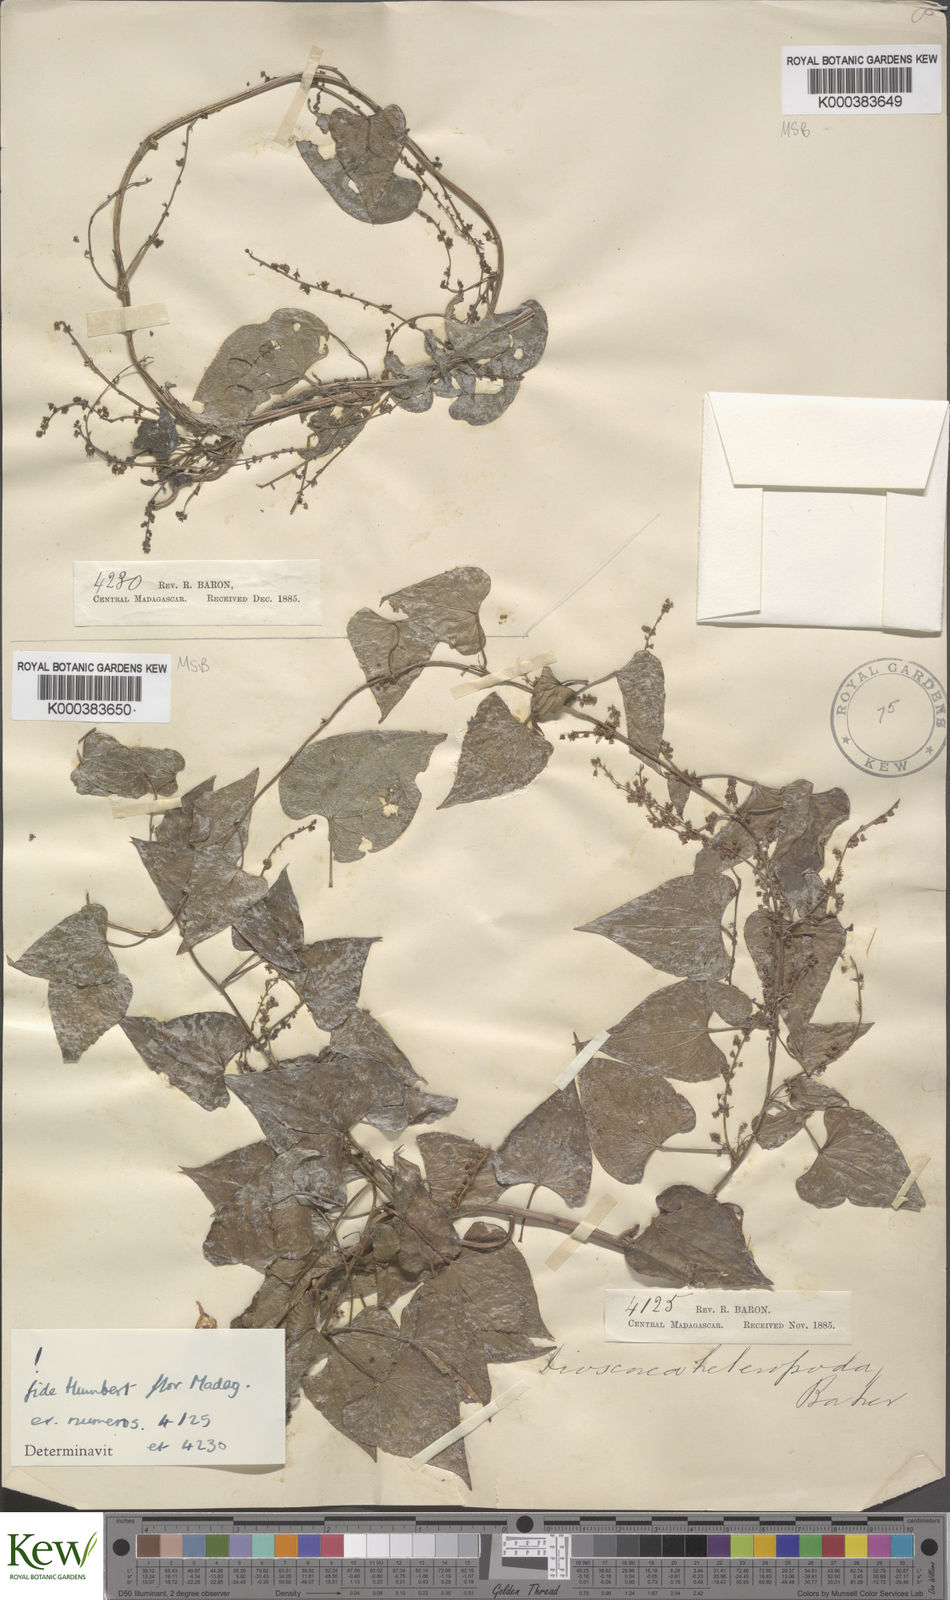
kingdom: Plantae
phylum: Tracheophyta
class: Liliopsida
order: Dioscoreales
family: Dioscoreaceae
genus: Dioscorea
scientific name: Dioscorea heteropoda
